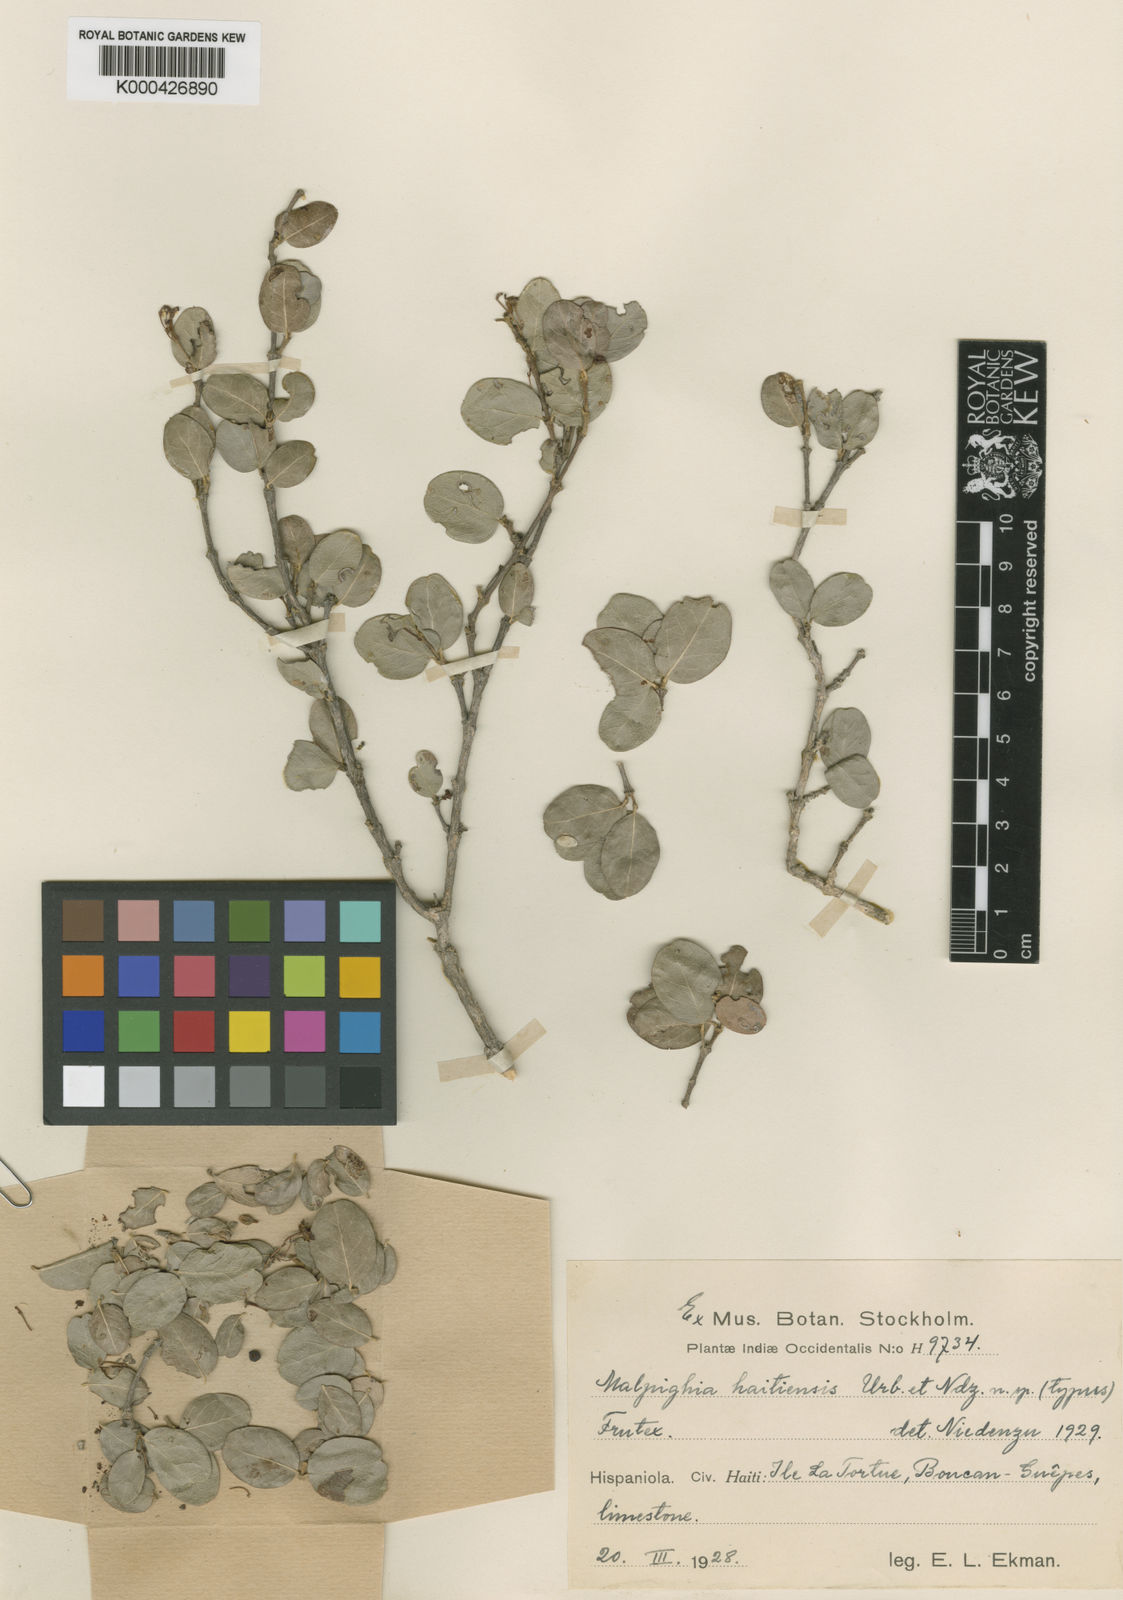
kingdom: Plantae
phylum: Tracheophyta
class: Magnoliopsida
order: Malpighiales
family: Malpighiaceae
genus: Malpighia
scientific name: Malpighia polytricha
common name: Touch-me-not
